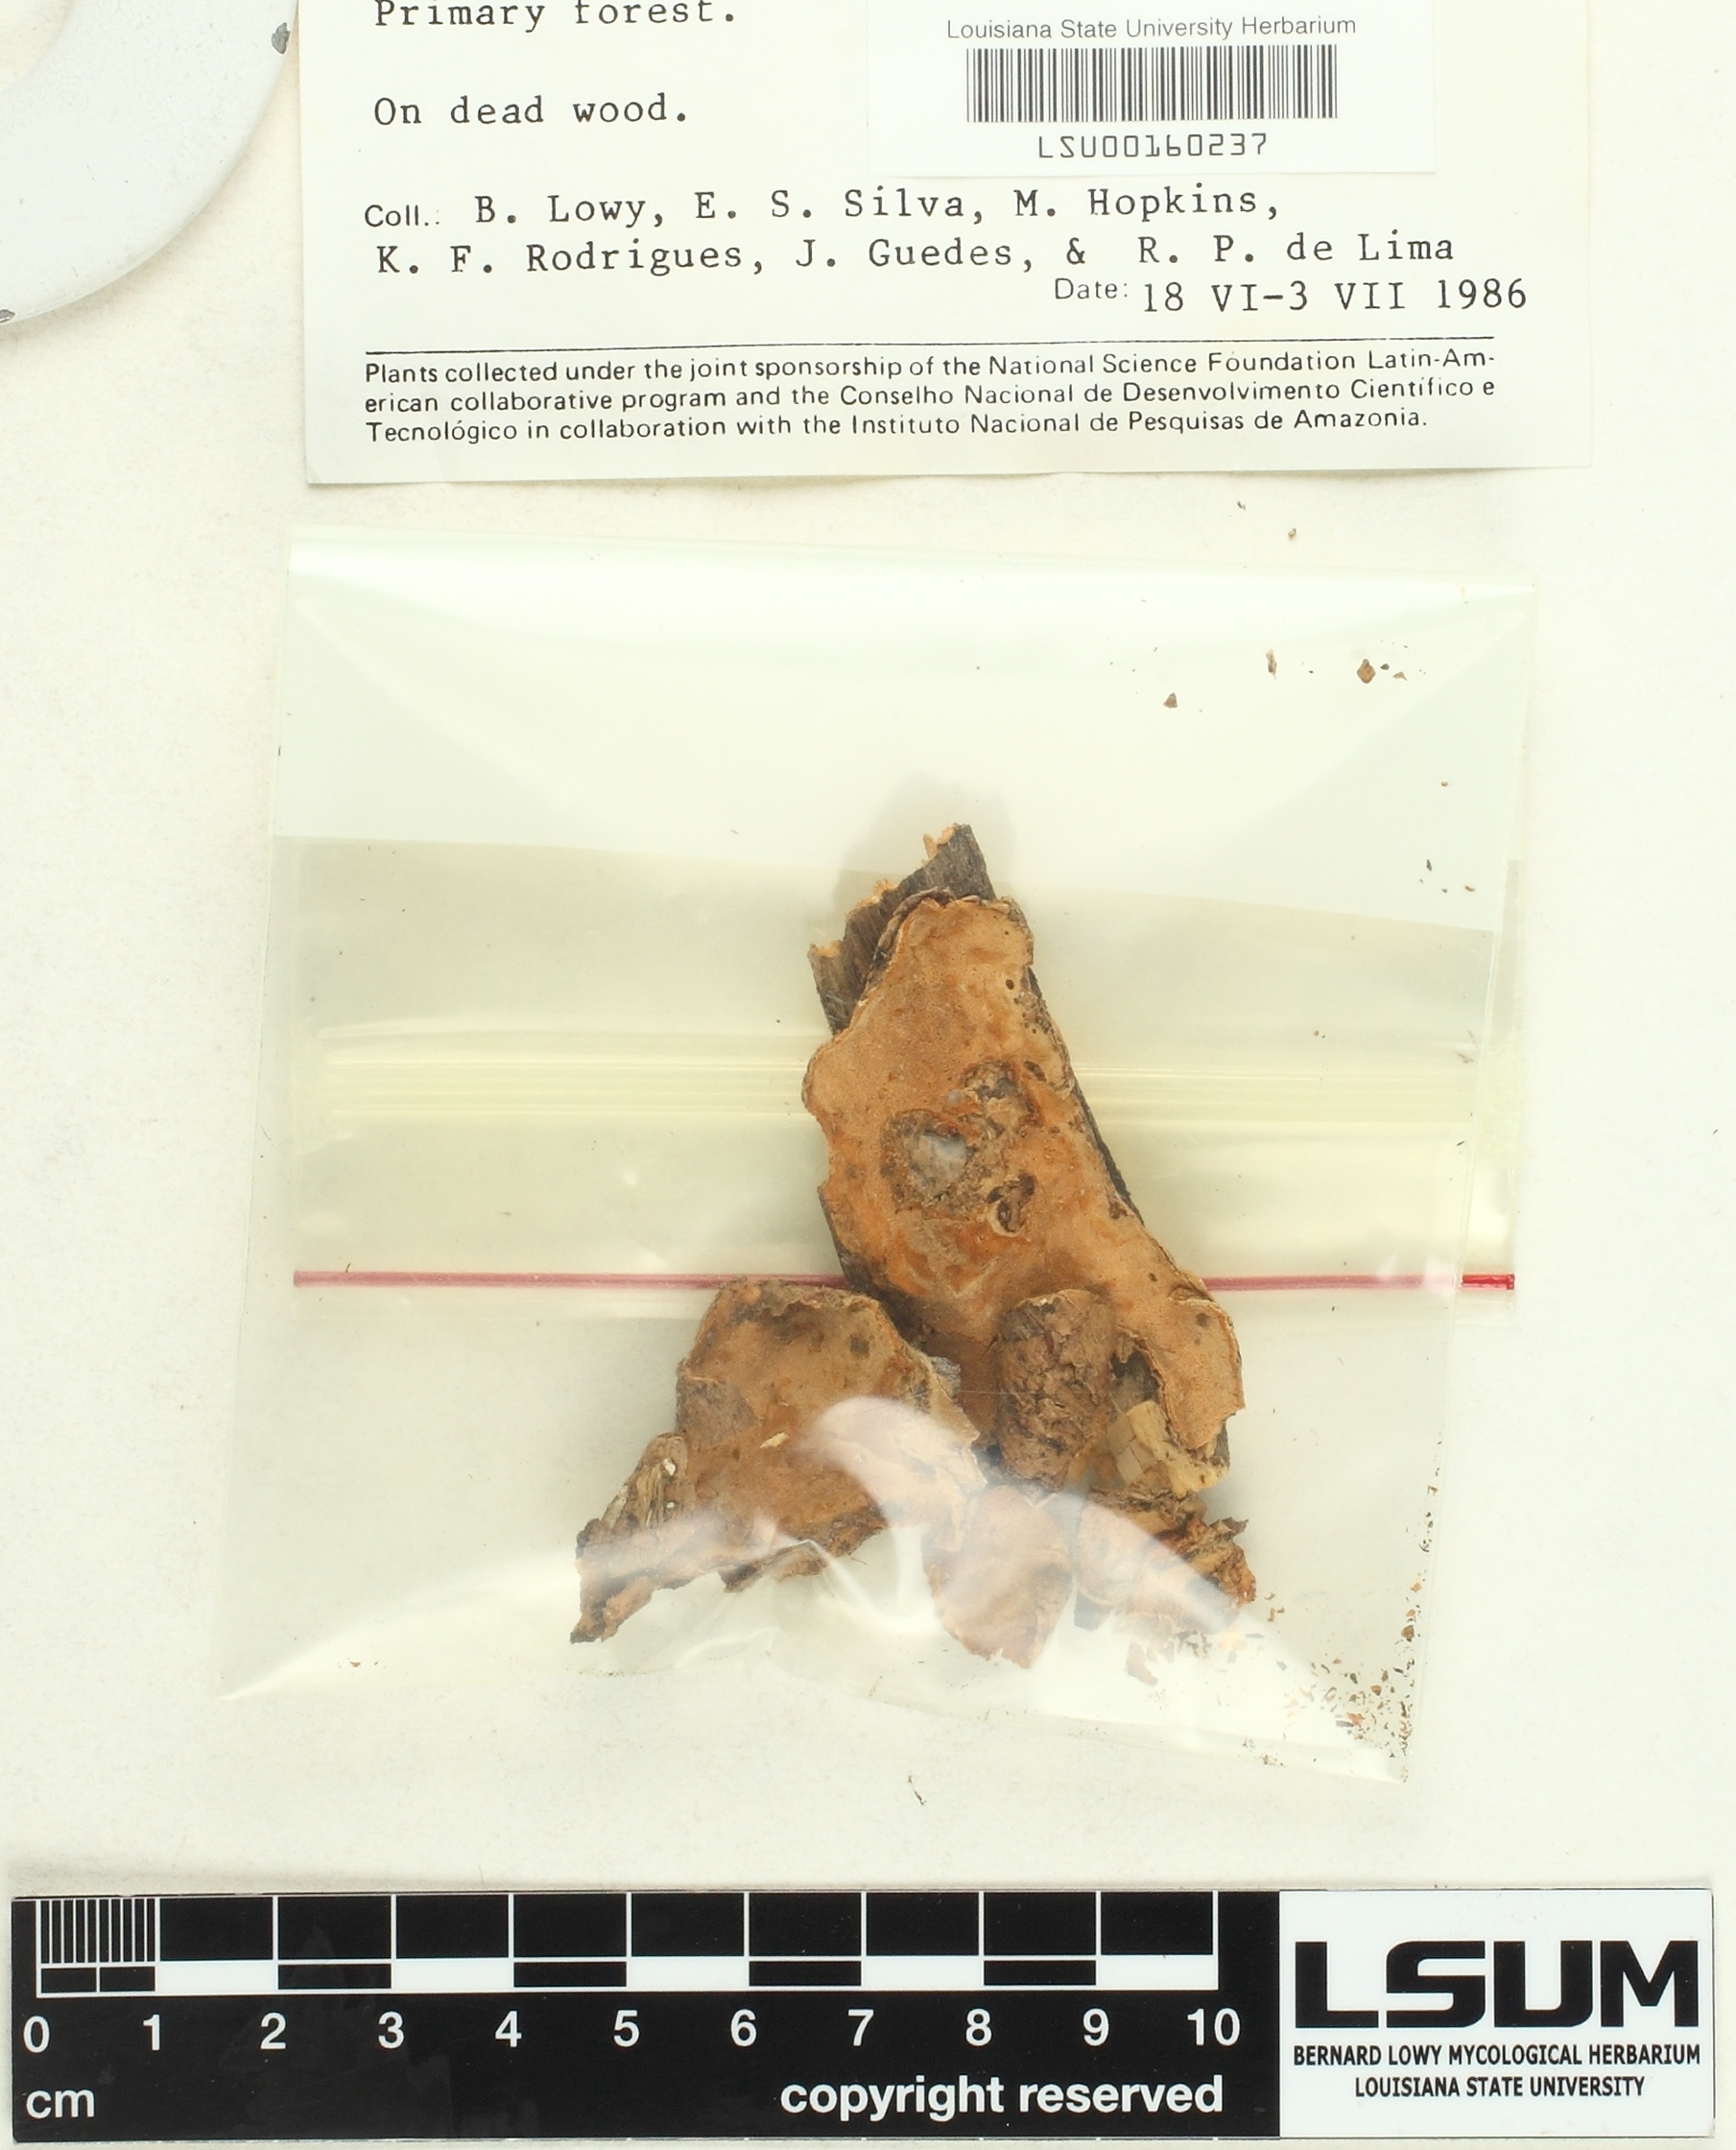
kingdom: Fungi
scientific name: Fungi
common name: Fungi
